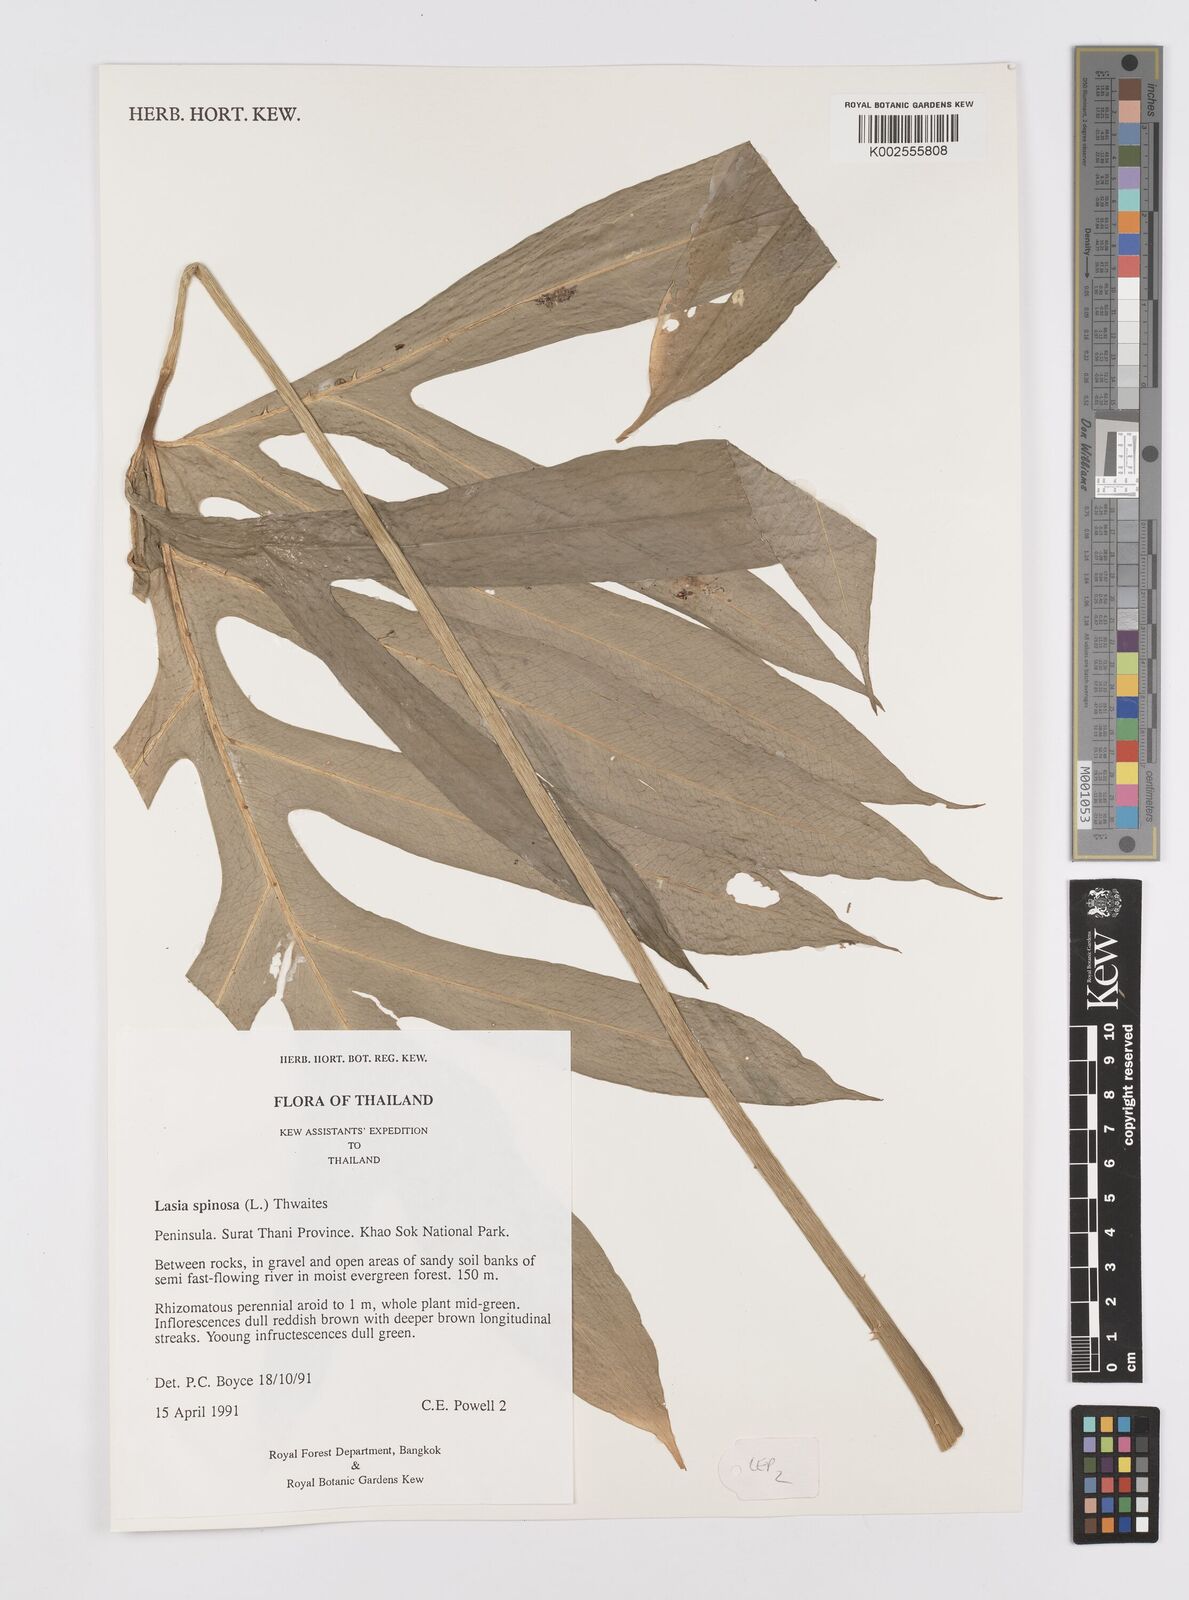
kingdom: Plantae
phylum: Tracheophyta
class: Liliopsida
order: Alismatales
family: Araceae
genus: Lasia
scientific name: Lasia spinosa
